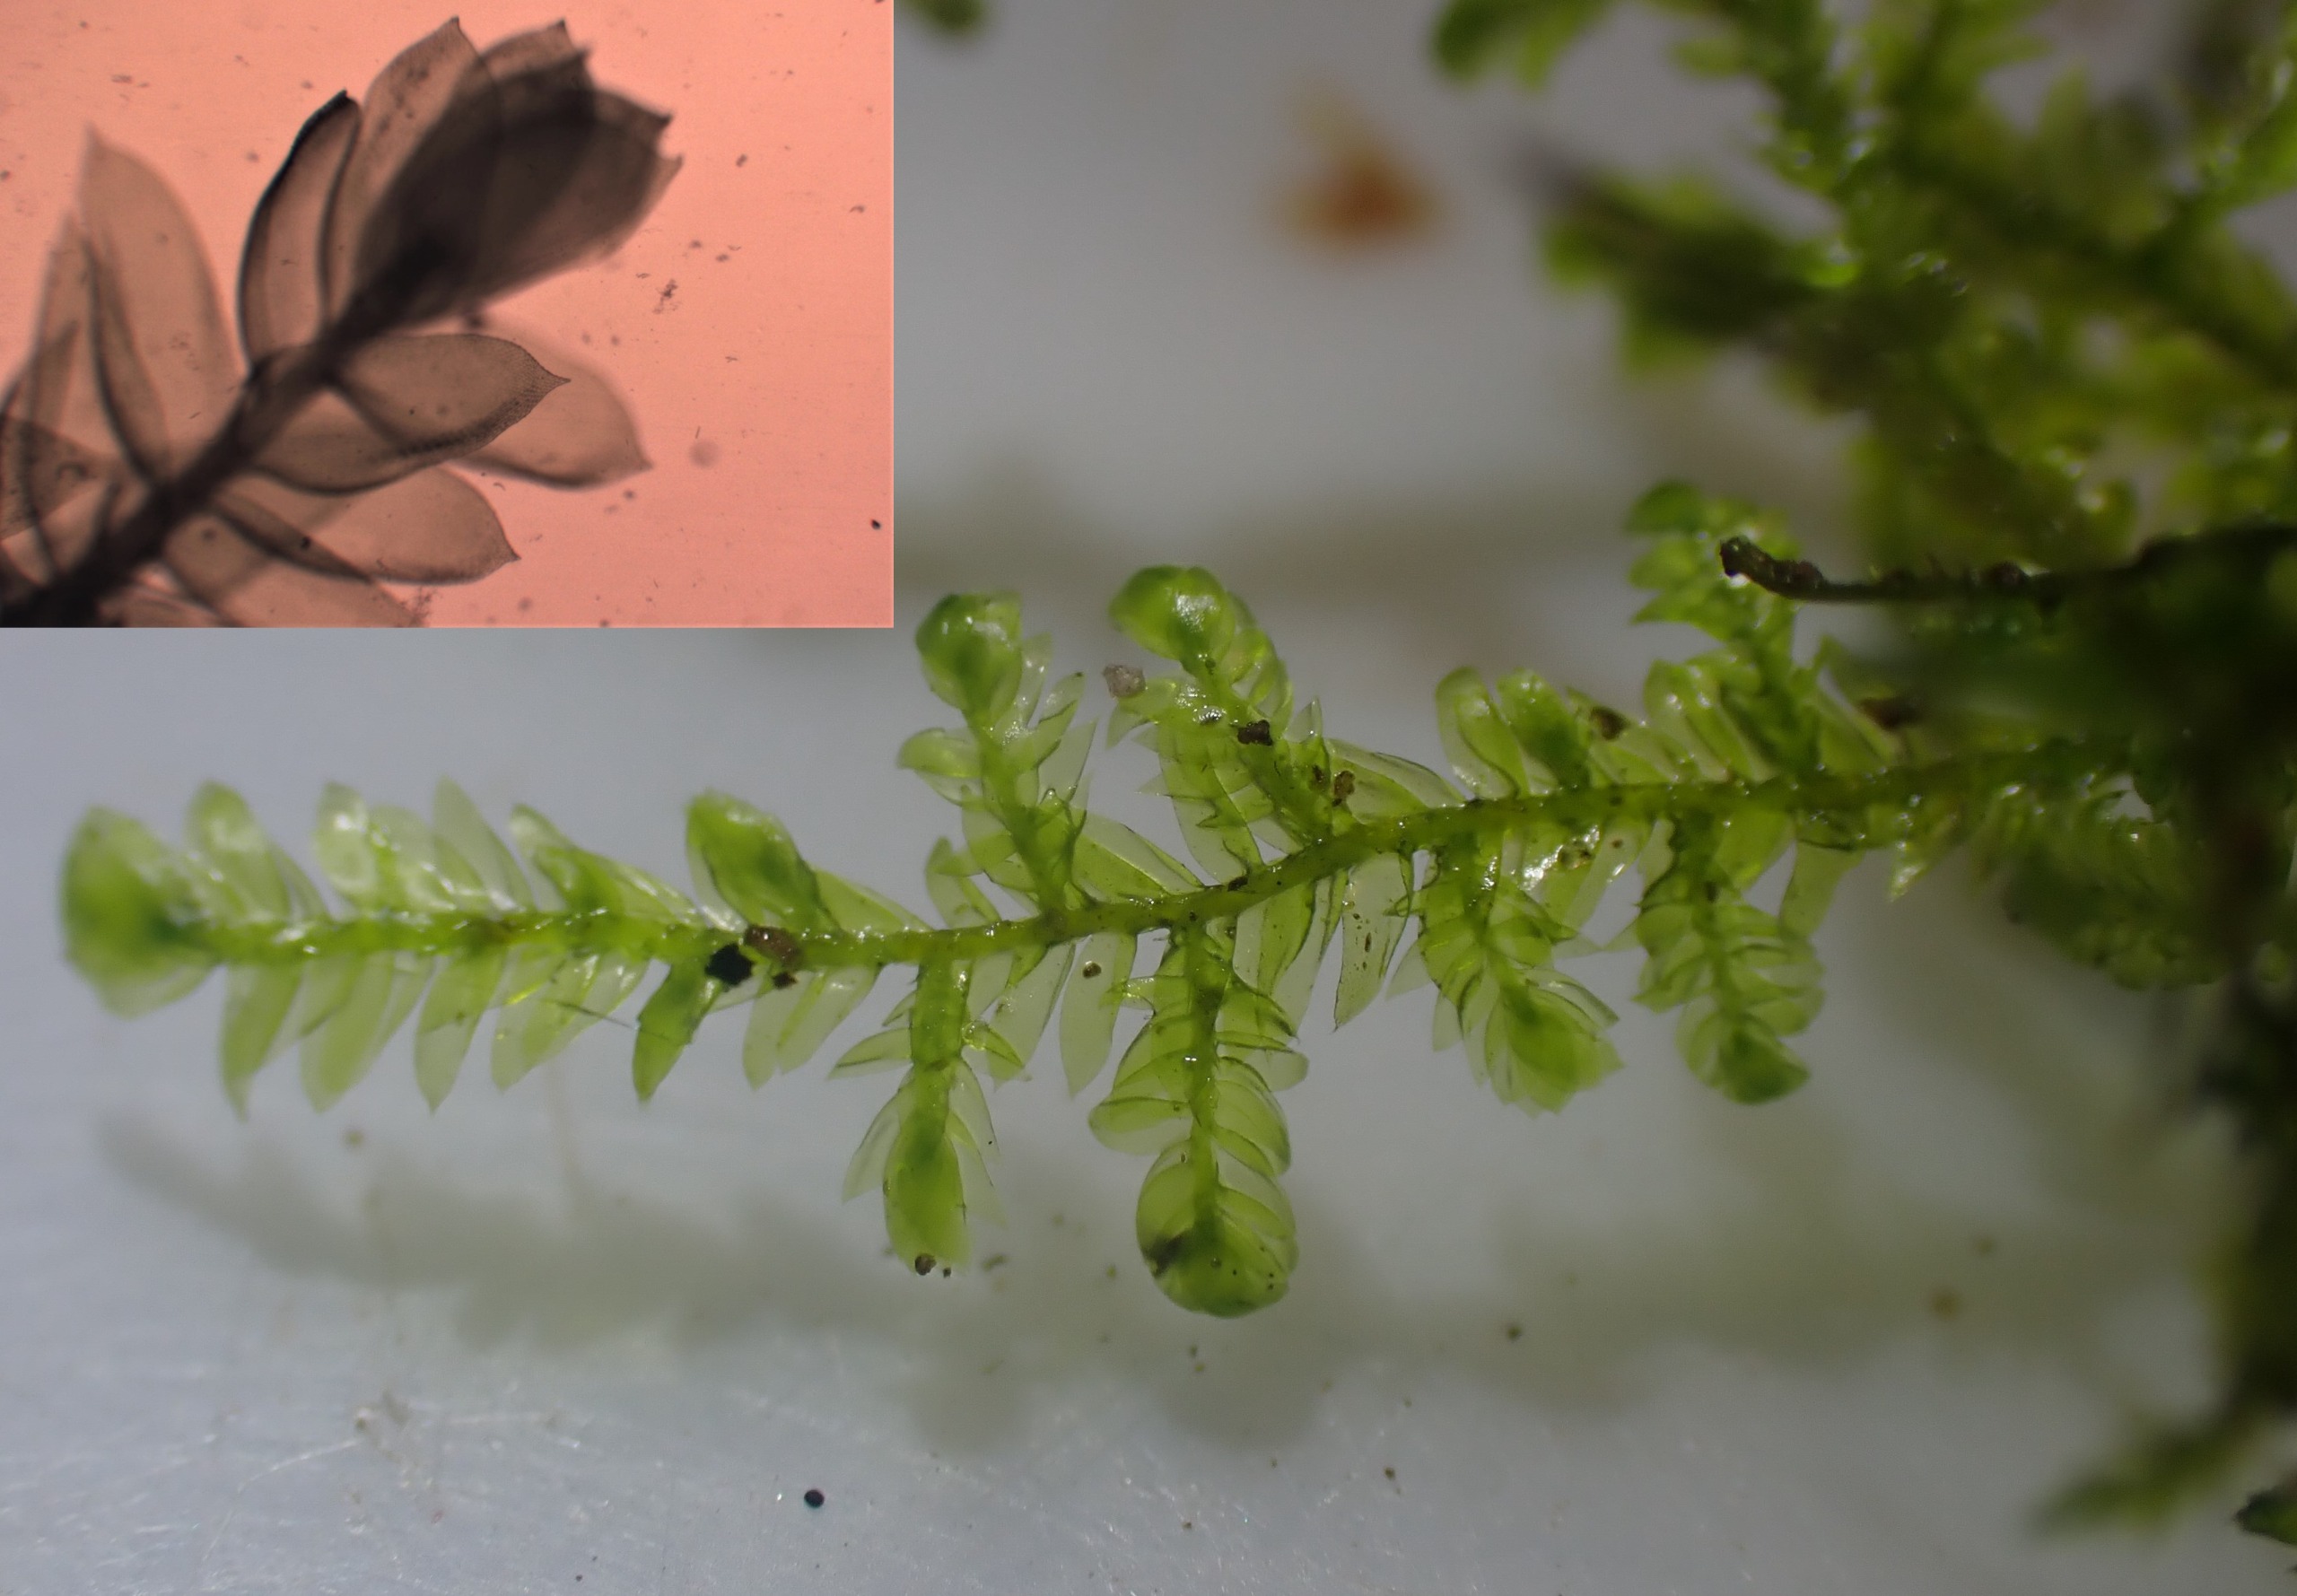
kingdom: Plantae
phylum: Bryophyta
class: Bryopsida
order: Hypnales
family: Neckeraceae
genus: Alleniella
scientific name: Alleniella complanata
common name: Almindelig fladmos
